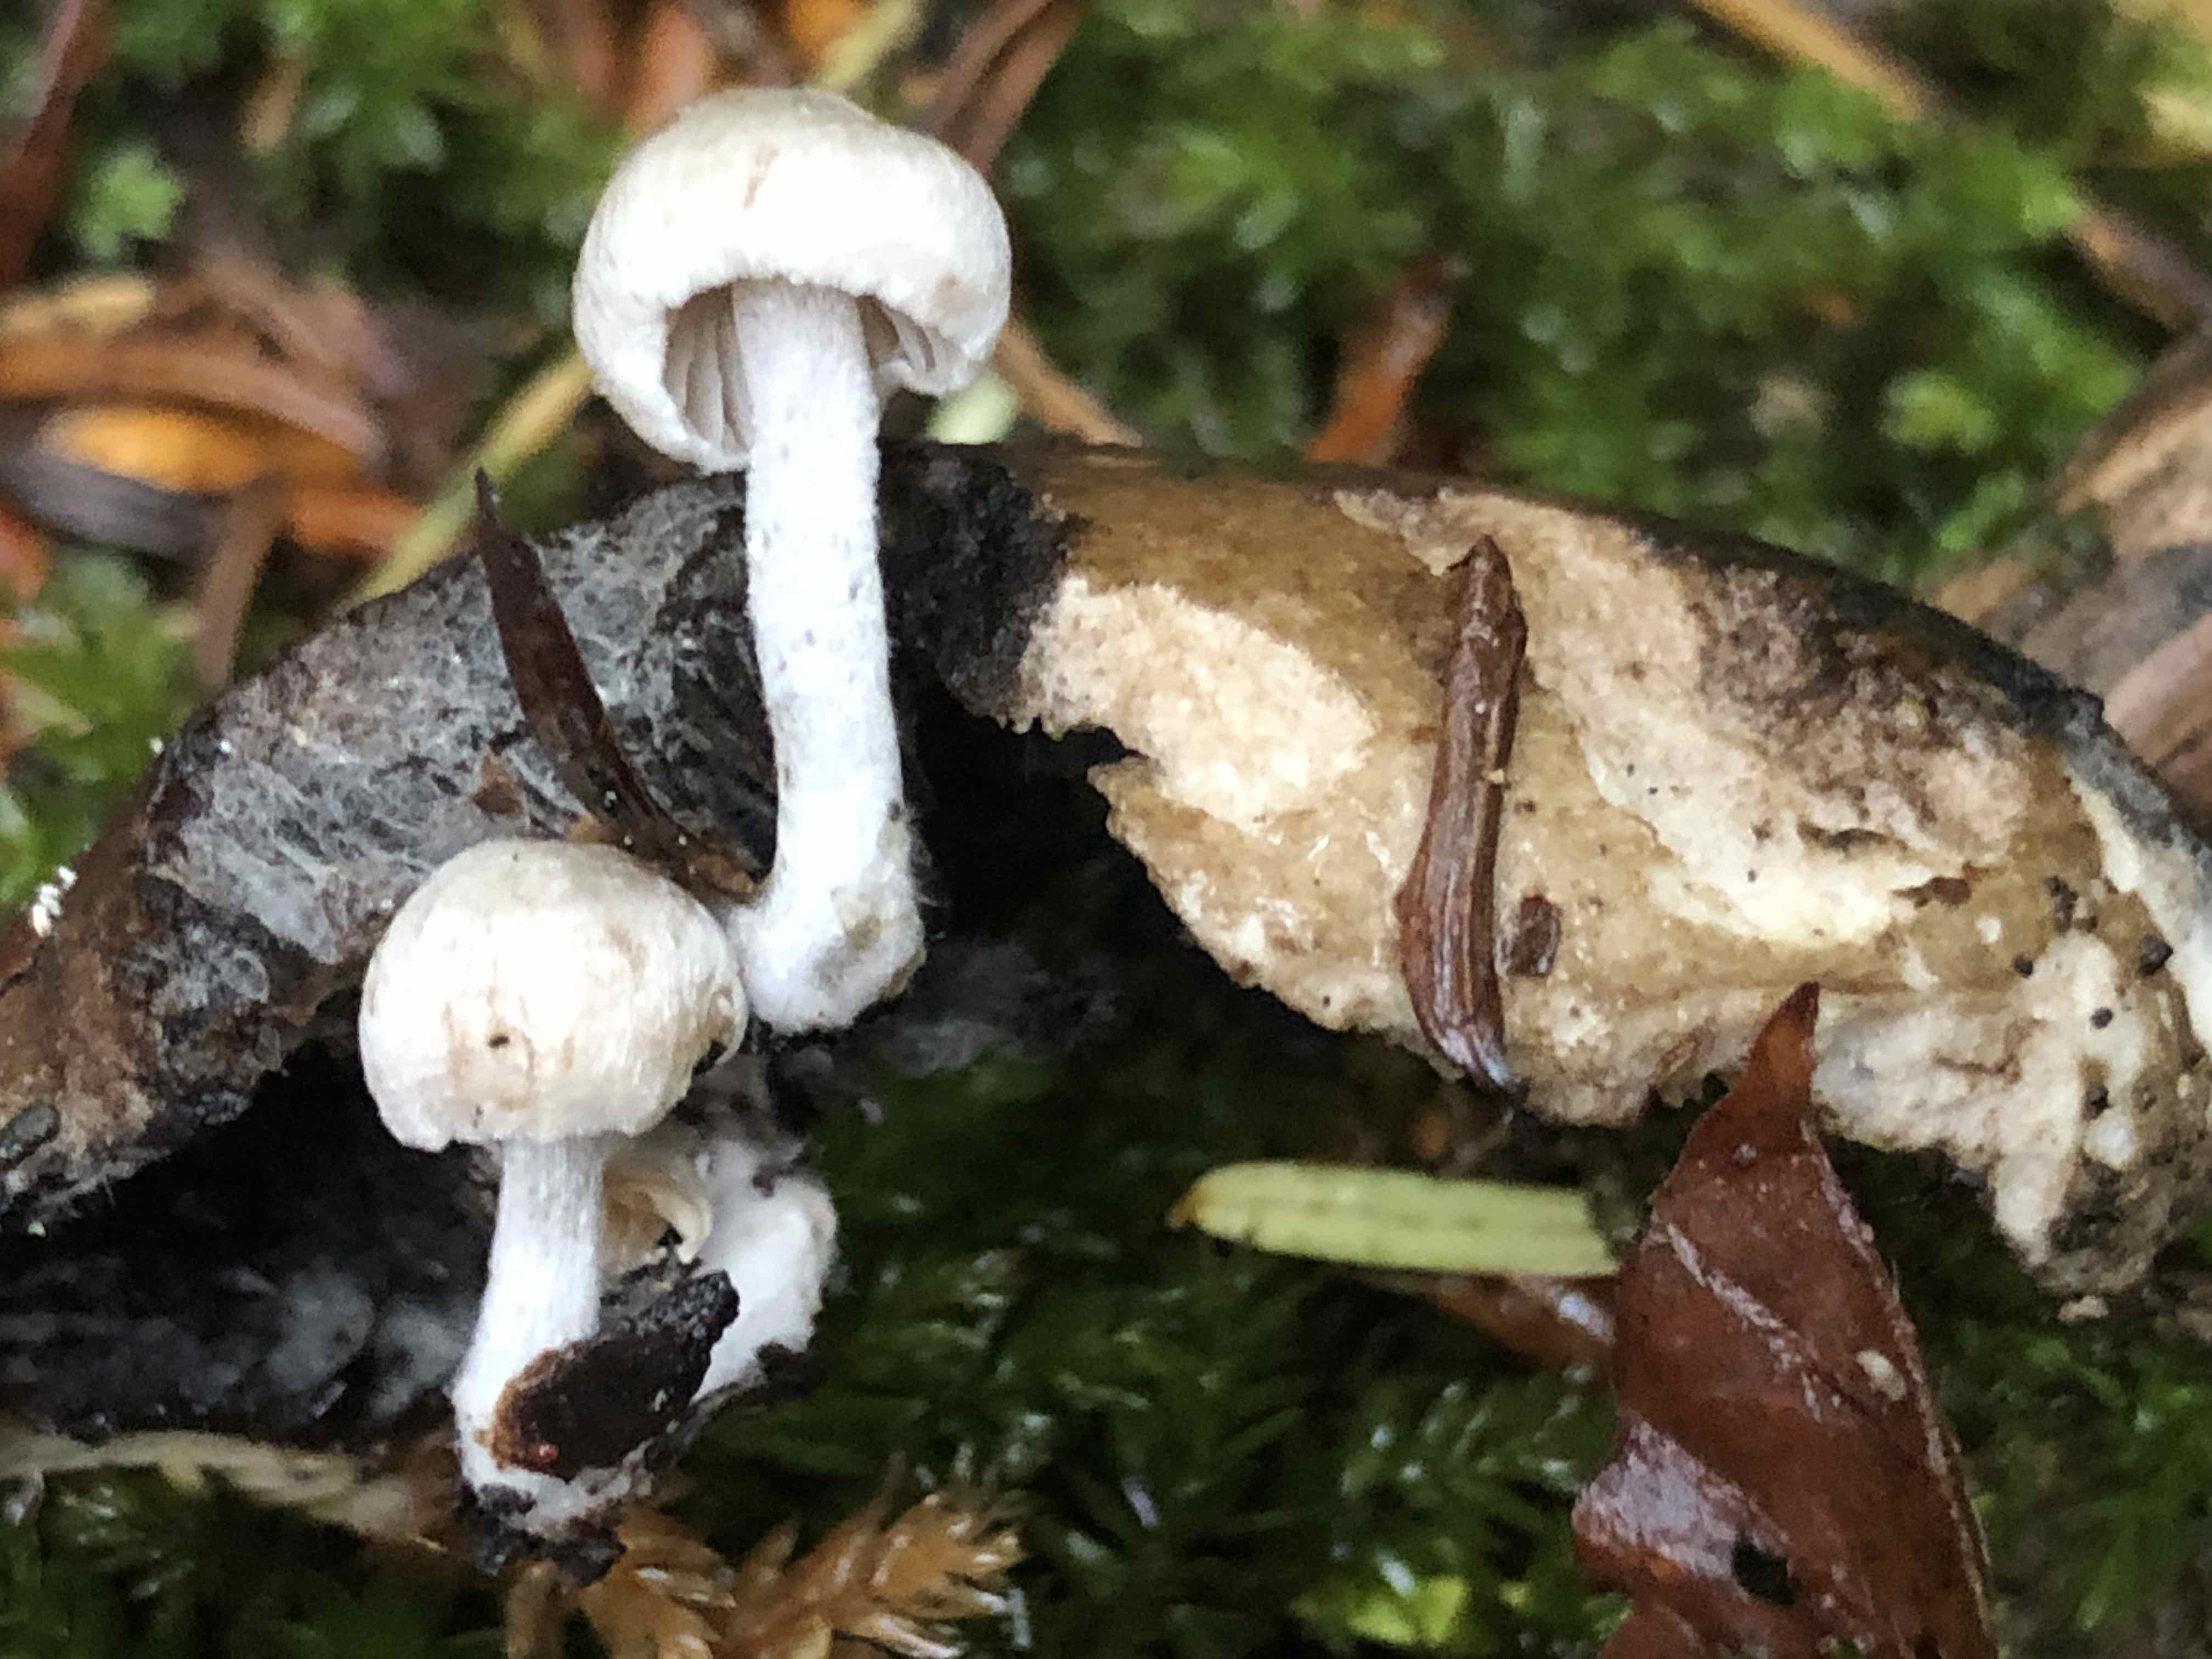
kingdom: Fungi
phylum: Basidiomycota
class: Agaricomycetes
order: Agaricales
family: Lyophyllaceae
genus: Asterophora
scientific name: Asterophora parasitica
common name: grå snyltehat
